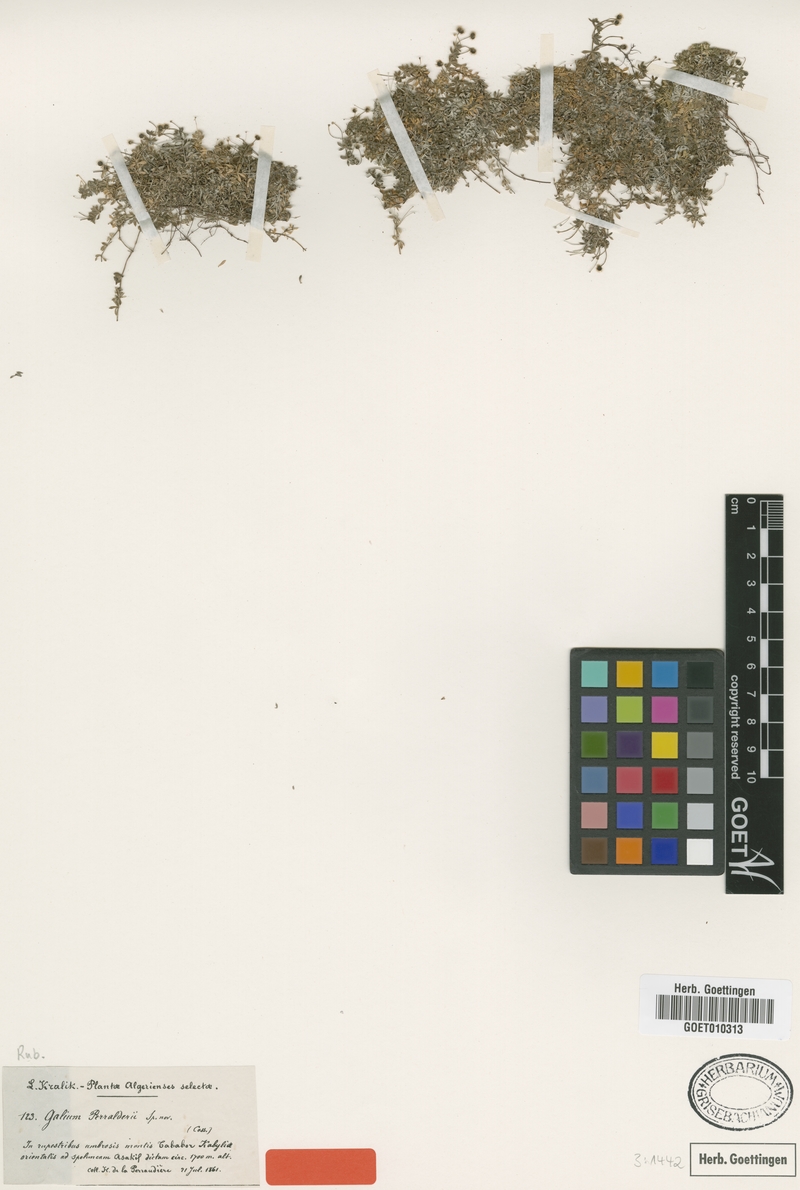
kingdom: Plantae
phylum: Tracheophyta
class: Magnoliopsida
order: Gentianales
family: Rubiaceae
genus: Galium
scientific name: Galium perralderii
